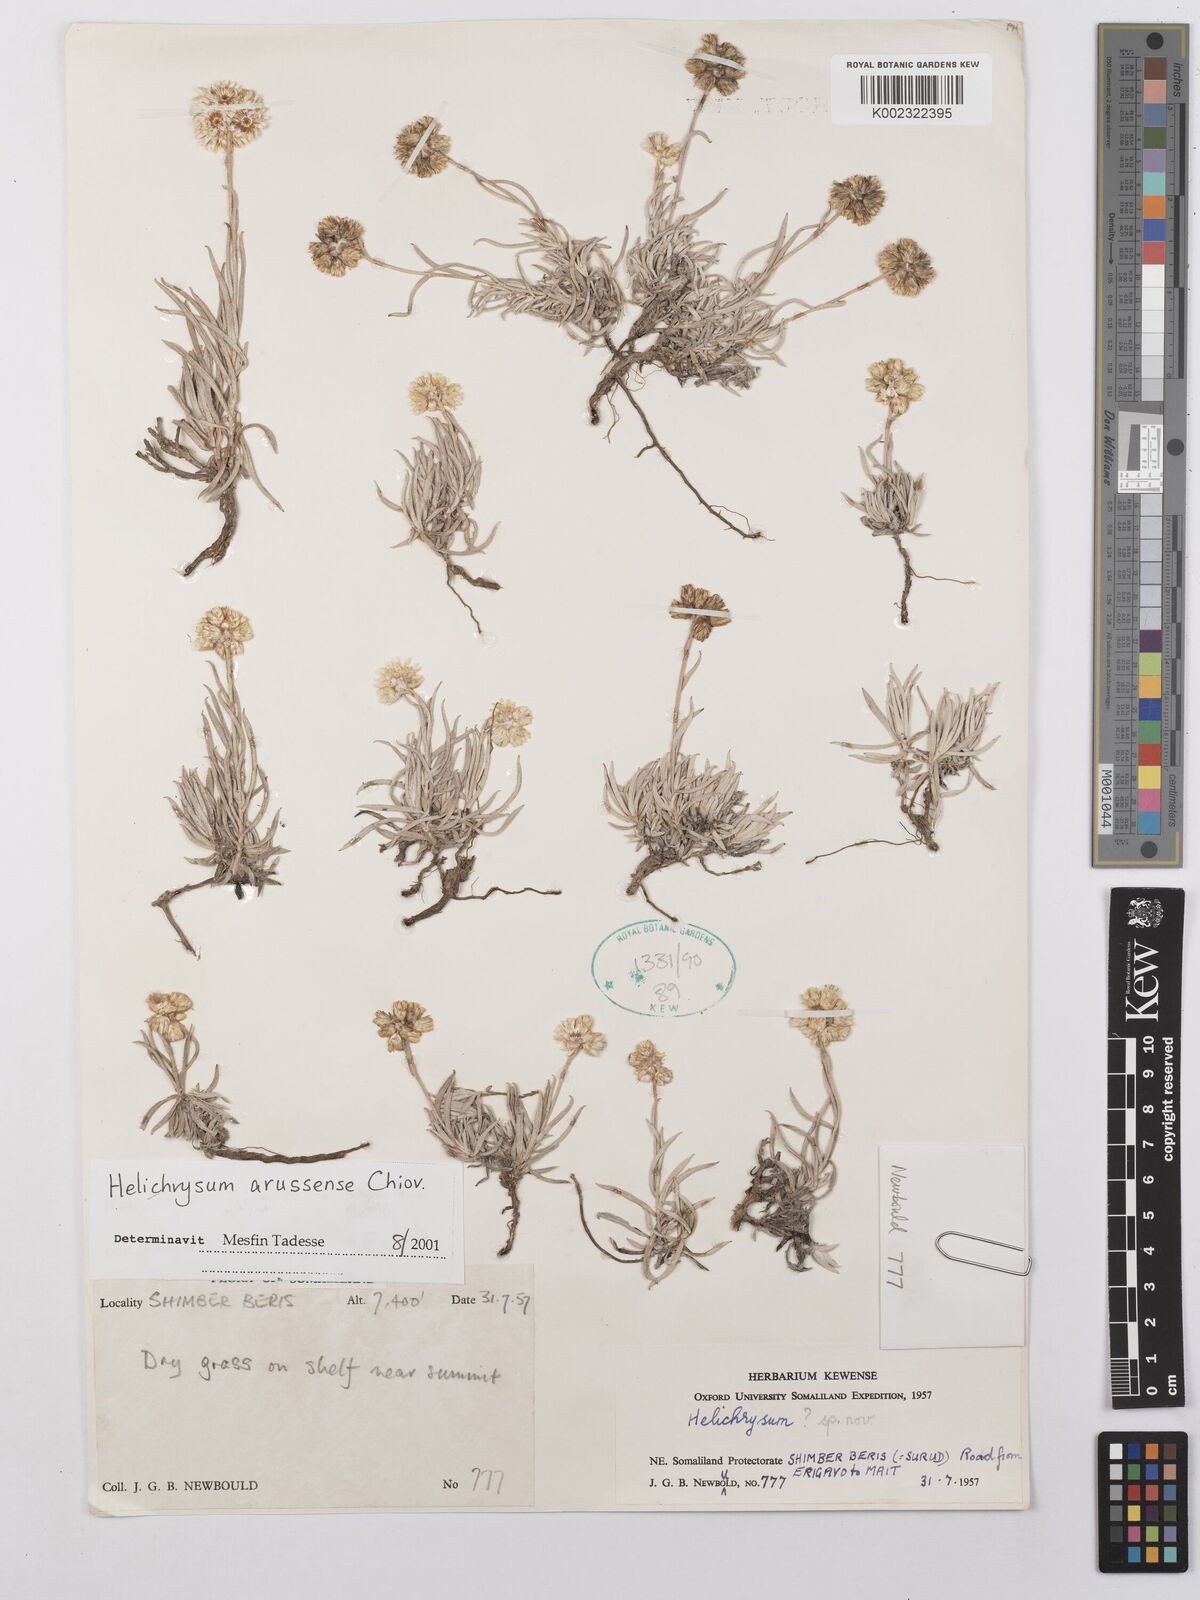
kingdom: Plantae
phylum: Tracheophyta
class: Magnoliopsida
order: Asterales
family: Asteraceae
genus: Helichrysum
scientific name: Helichrysum arussense
